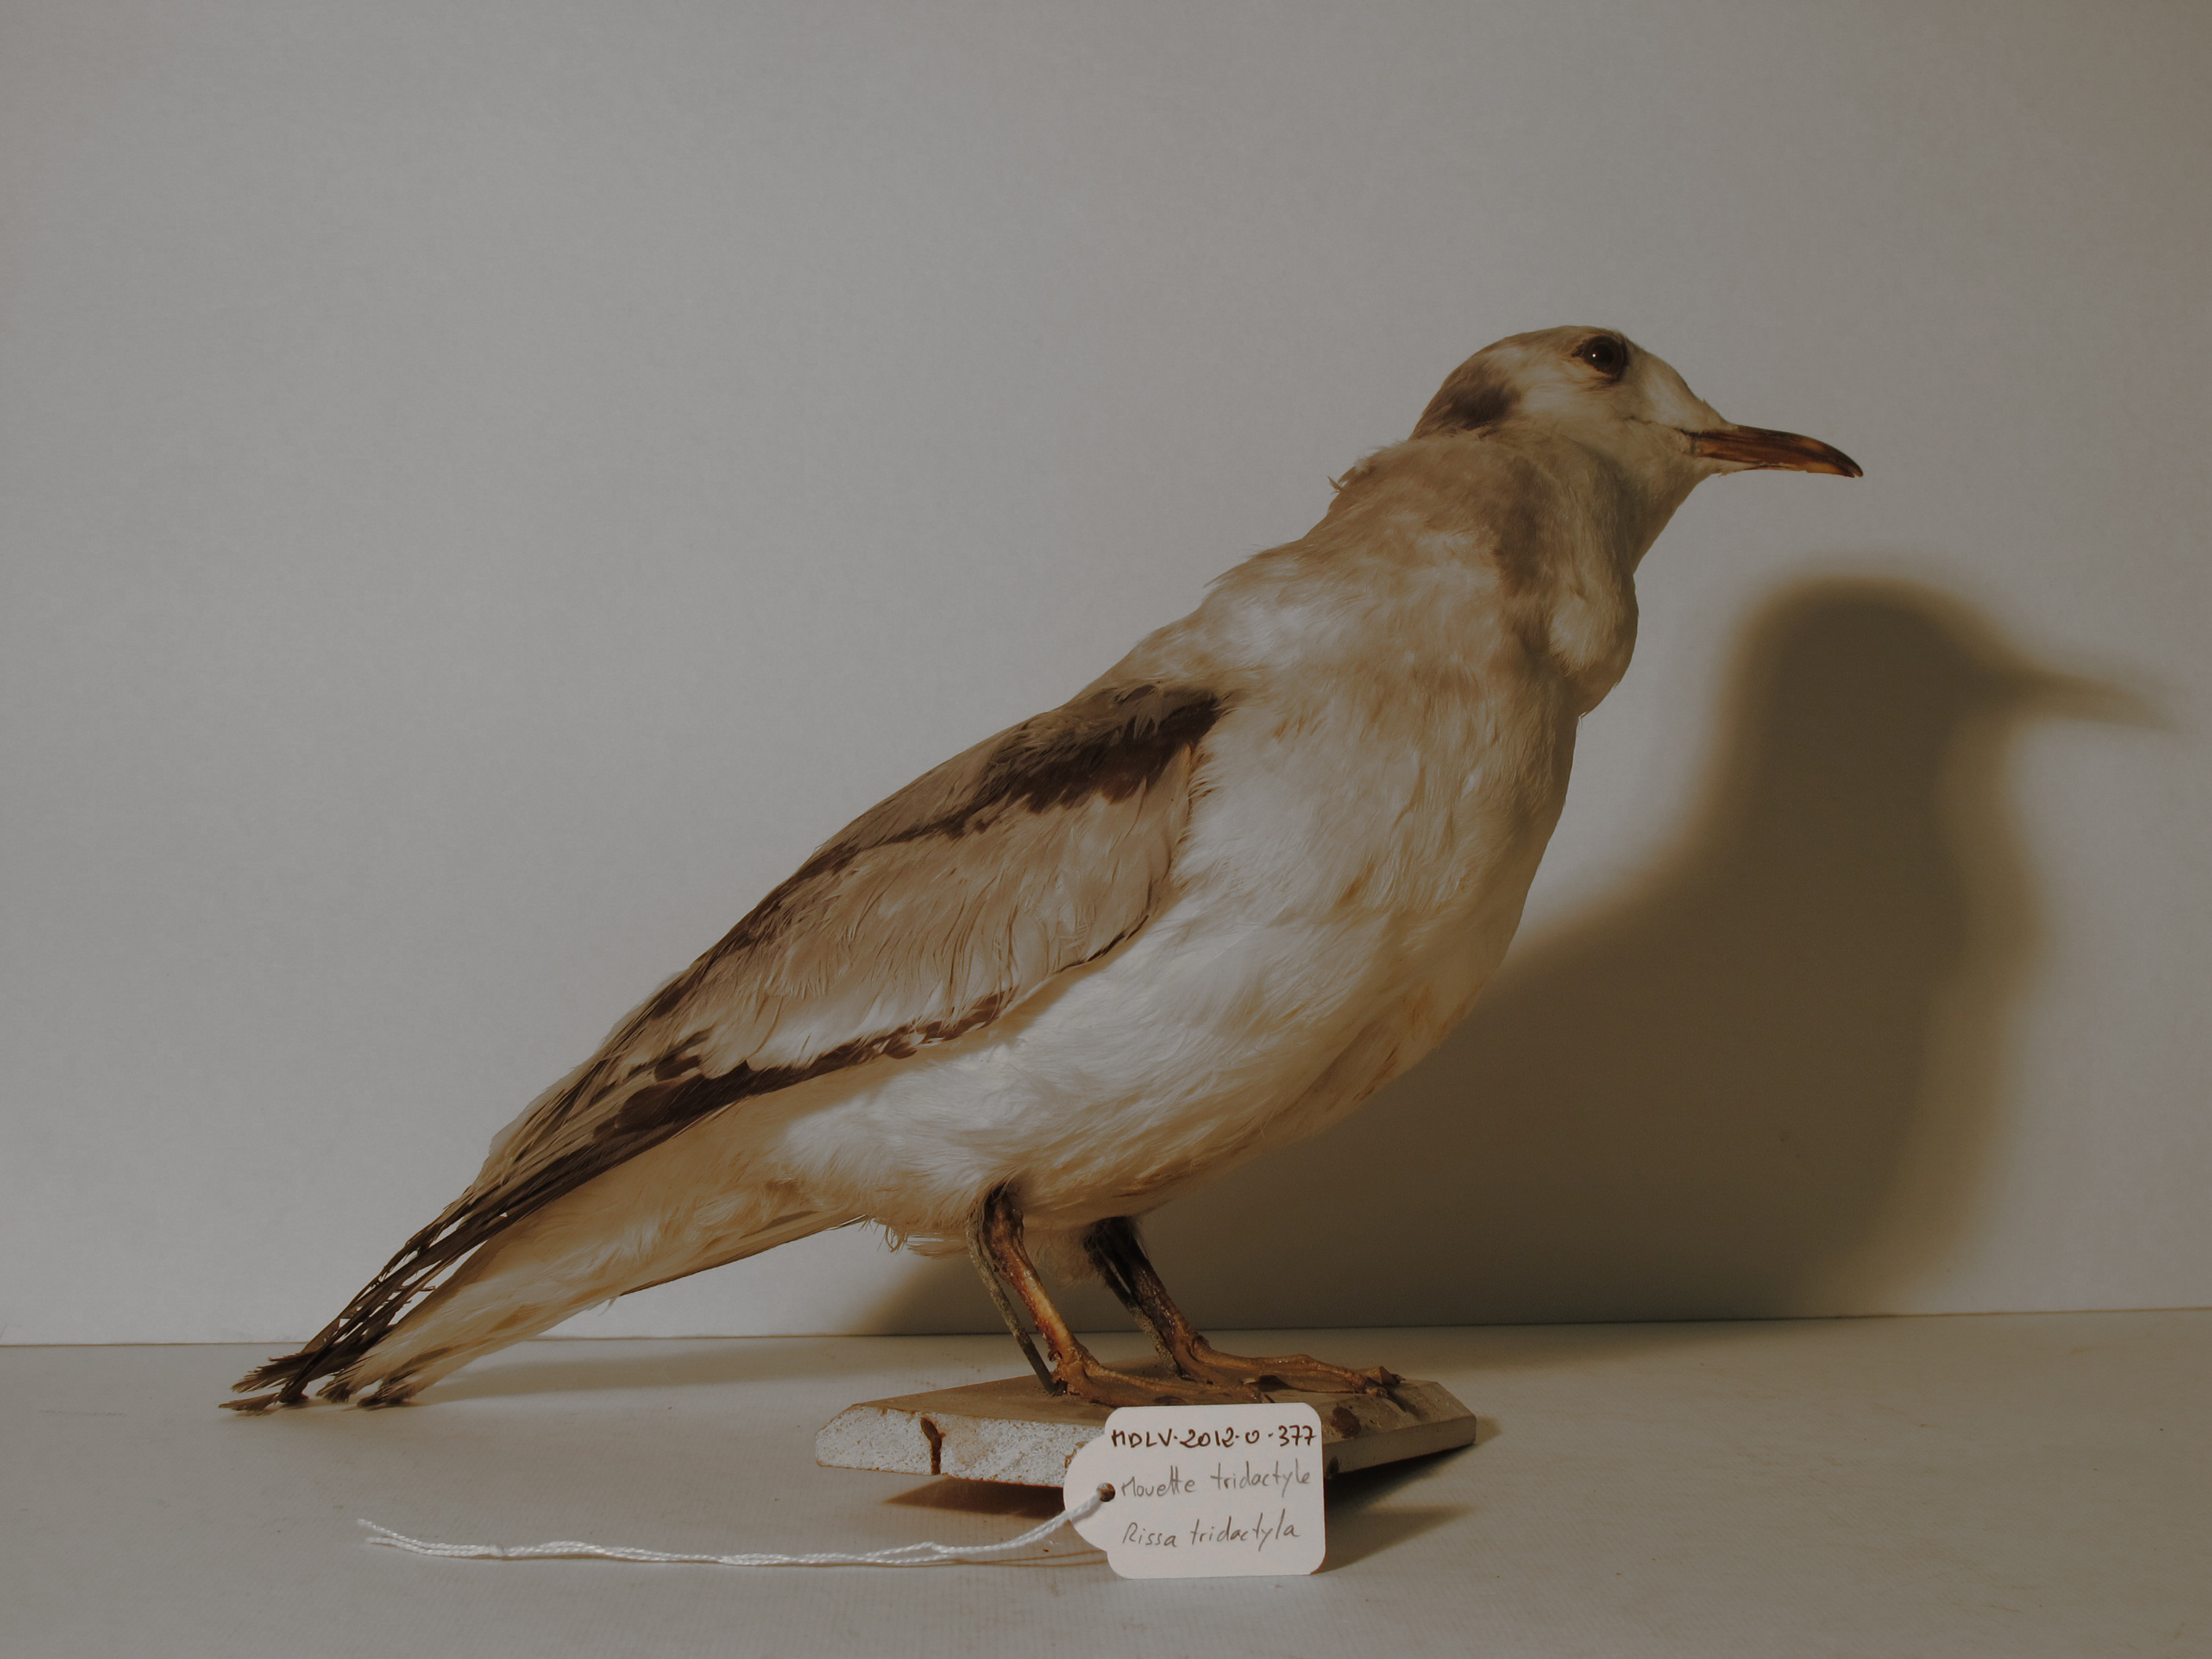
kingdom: Animalia
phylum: Chordata
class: Aves
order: Charadriiformes
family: Laridae
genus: Rissa
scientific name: Rissa tridactyla
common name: Black-legged Kittiwake
